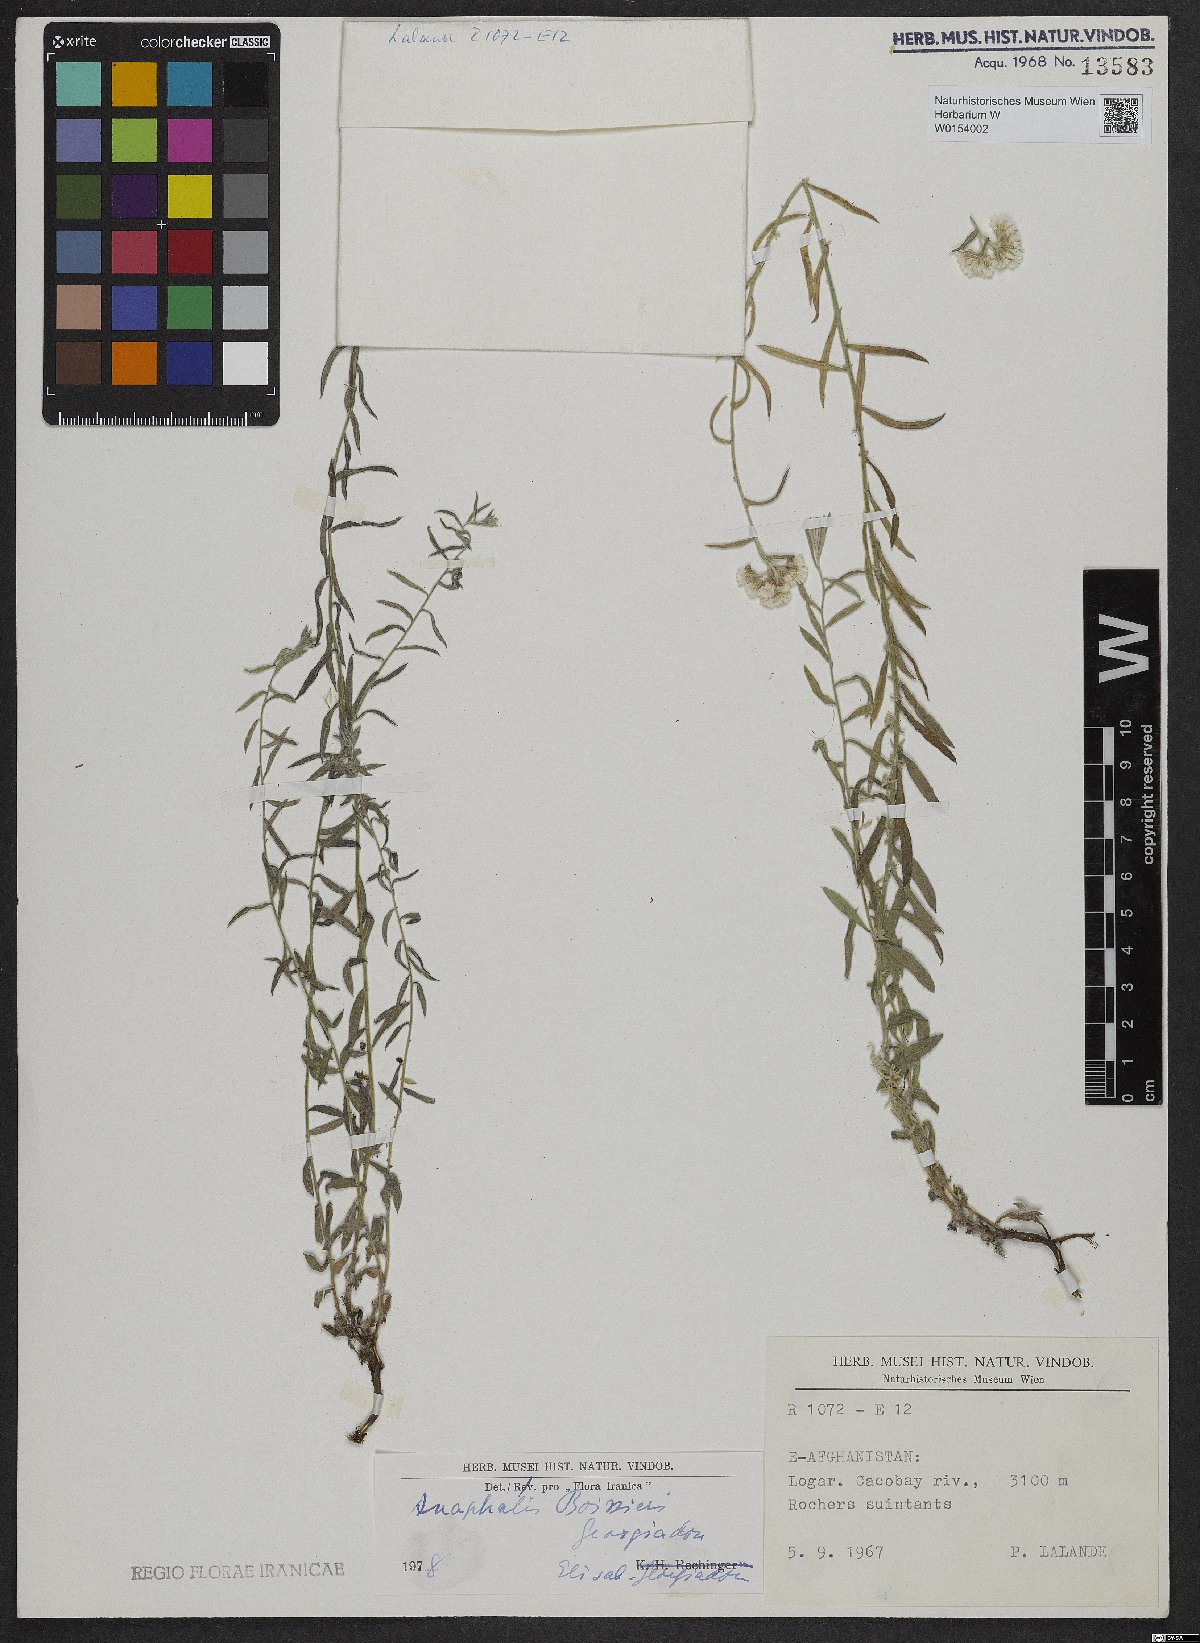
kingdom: Plantae
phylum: Tracheophyta
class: Magnoliopsida
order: Asterales
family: Asteraceae
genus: Anaphalis
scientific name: Anaphalis boissieri
